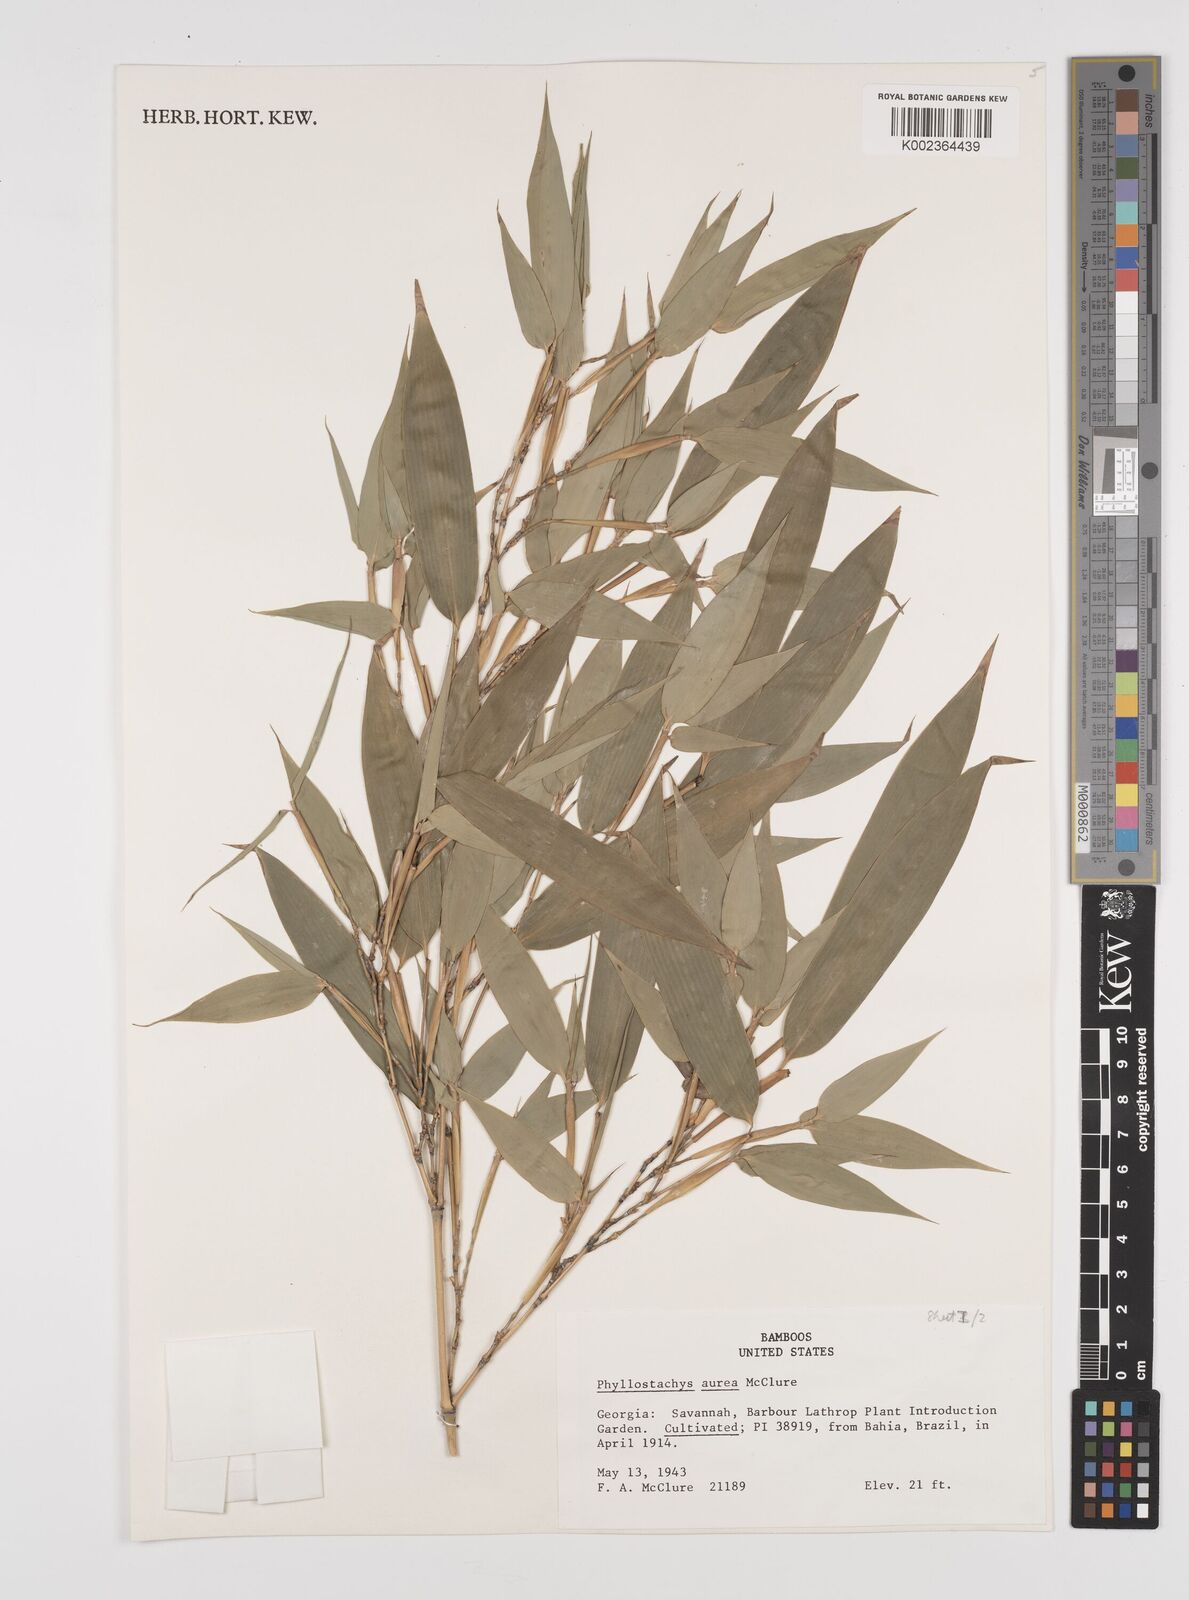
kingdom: Plantae
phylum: Tracheophyta
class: Liliopsida
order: Poales
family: Poaceae
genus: Phyllostachys
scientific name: Phyllostachys aurea
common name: Golden bamboo
